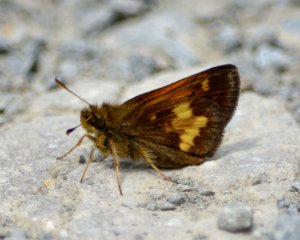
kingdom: Animalia
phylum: Arthropoda
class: Insecta
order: Lepidoptera
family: Hesperiidae
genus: Lon
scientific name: Lon hobomok
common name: Hobomok Skipper
